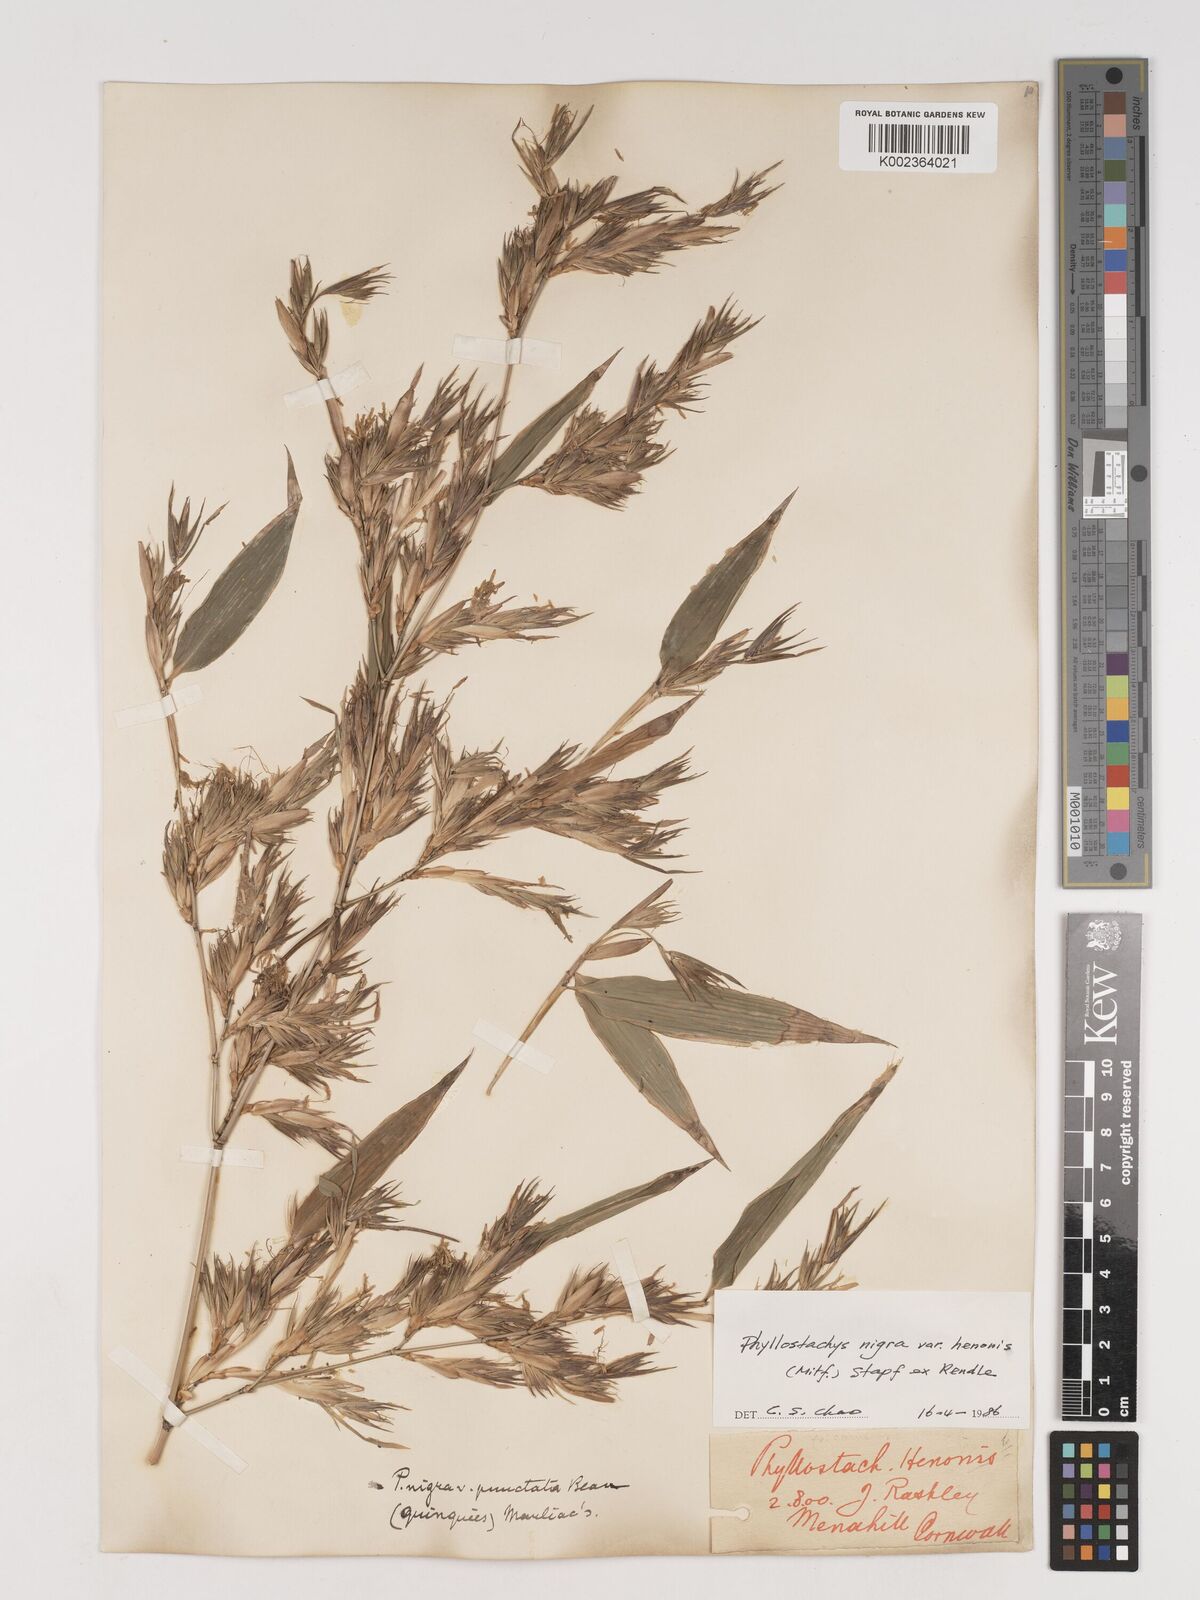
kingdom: Plantae
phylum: Tracheophyta
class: Liliopsida
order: Poales
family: Poaceae
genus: Phyllostachys
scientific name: Phyllostachys nigra
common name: Black bamboo
